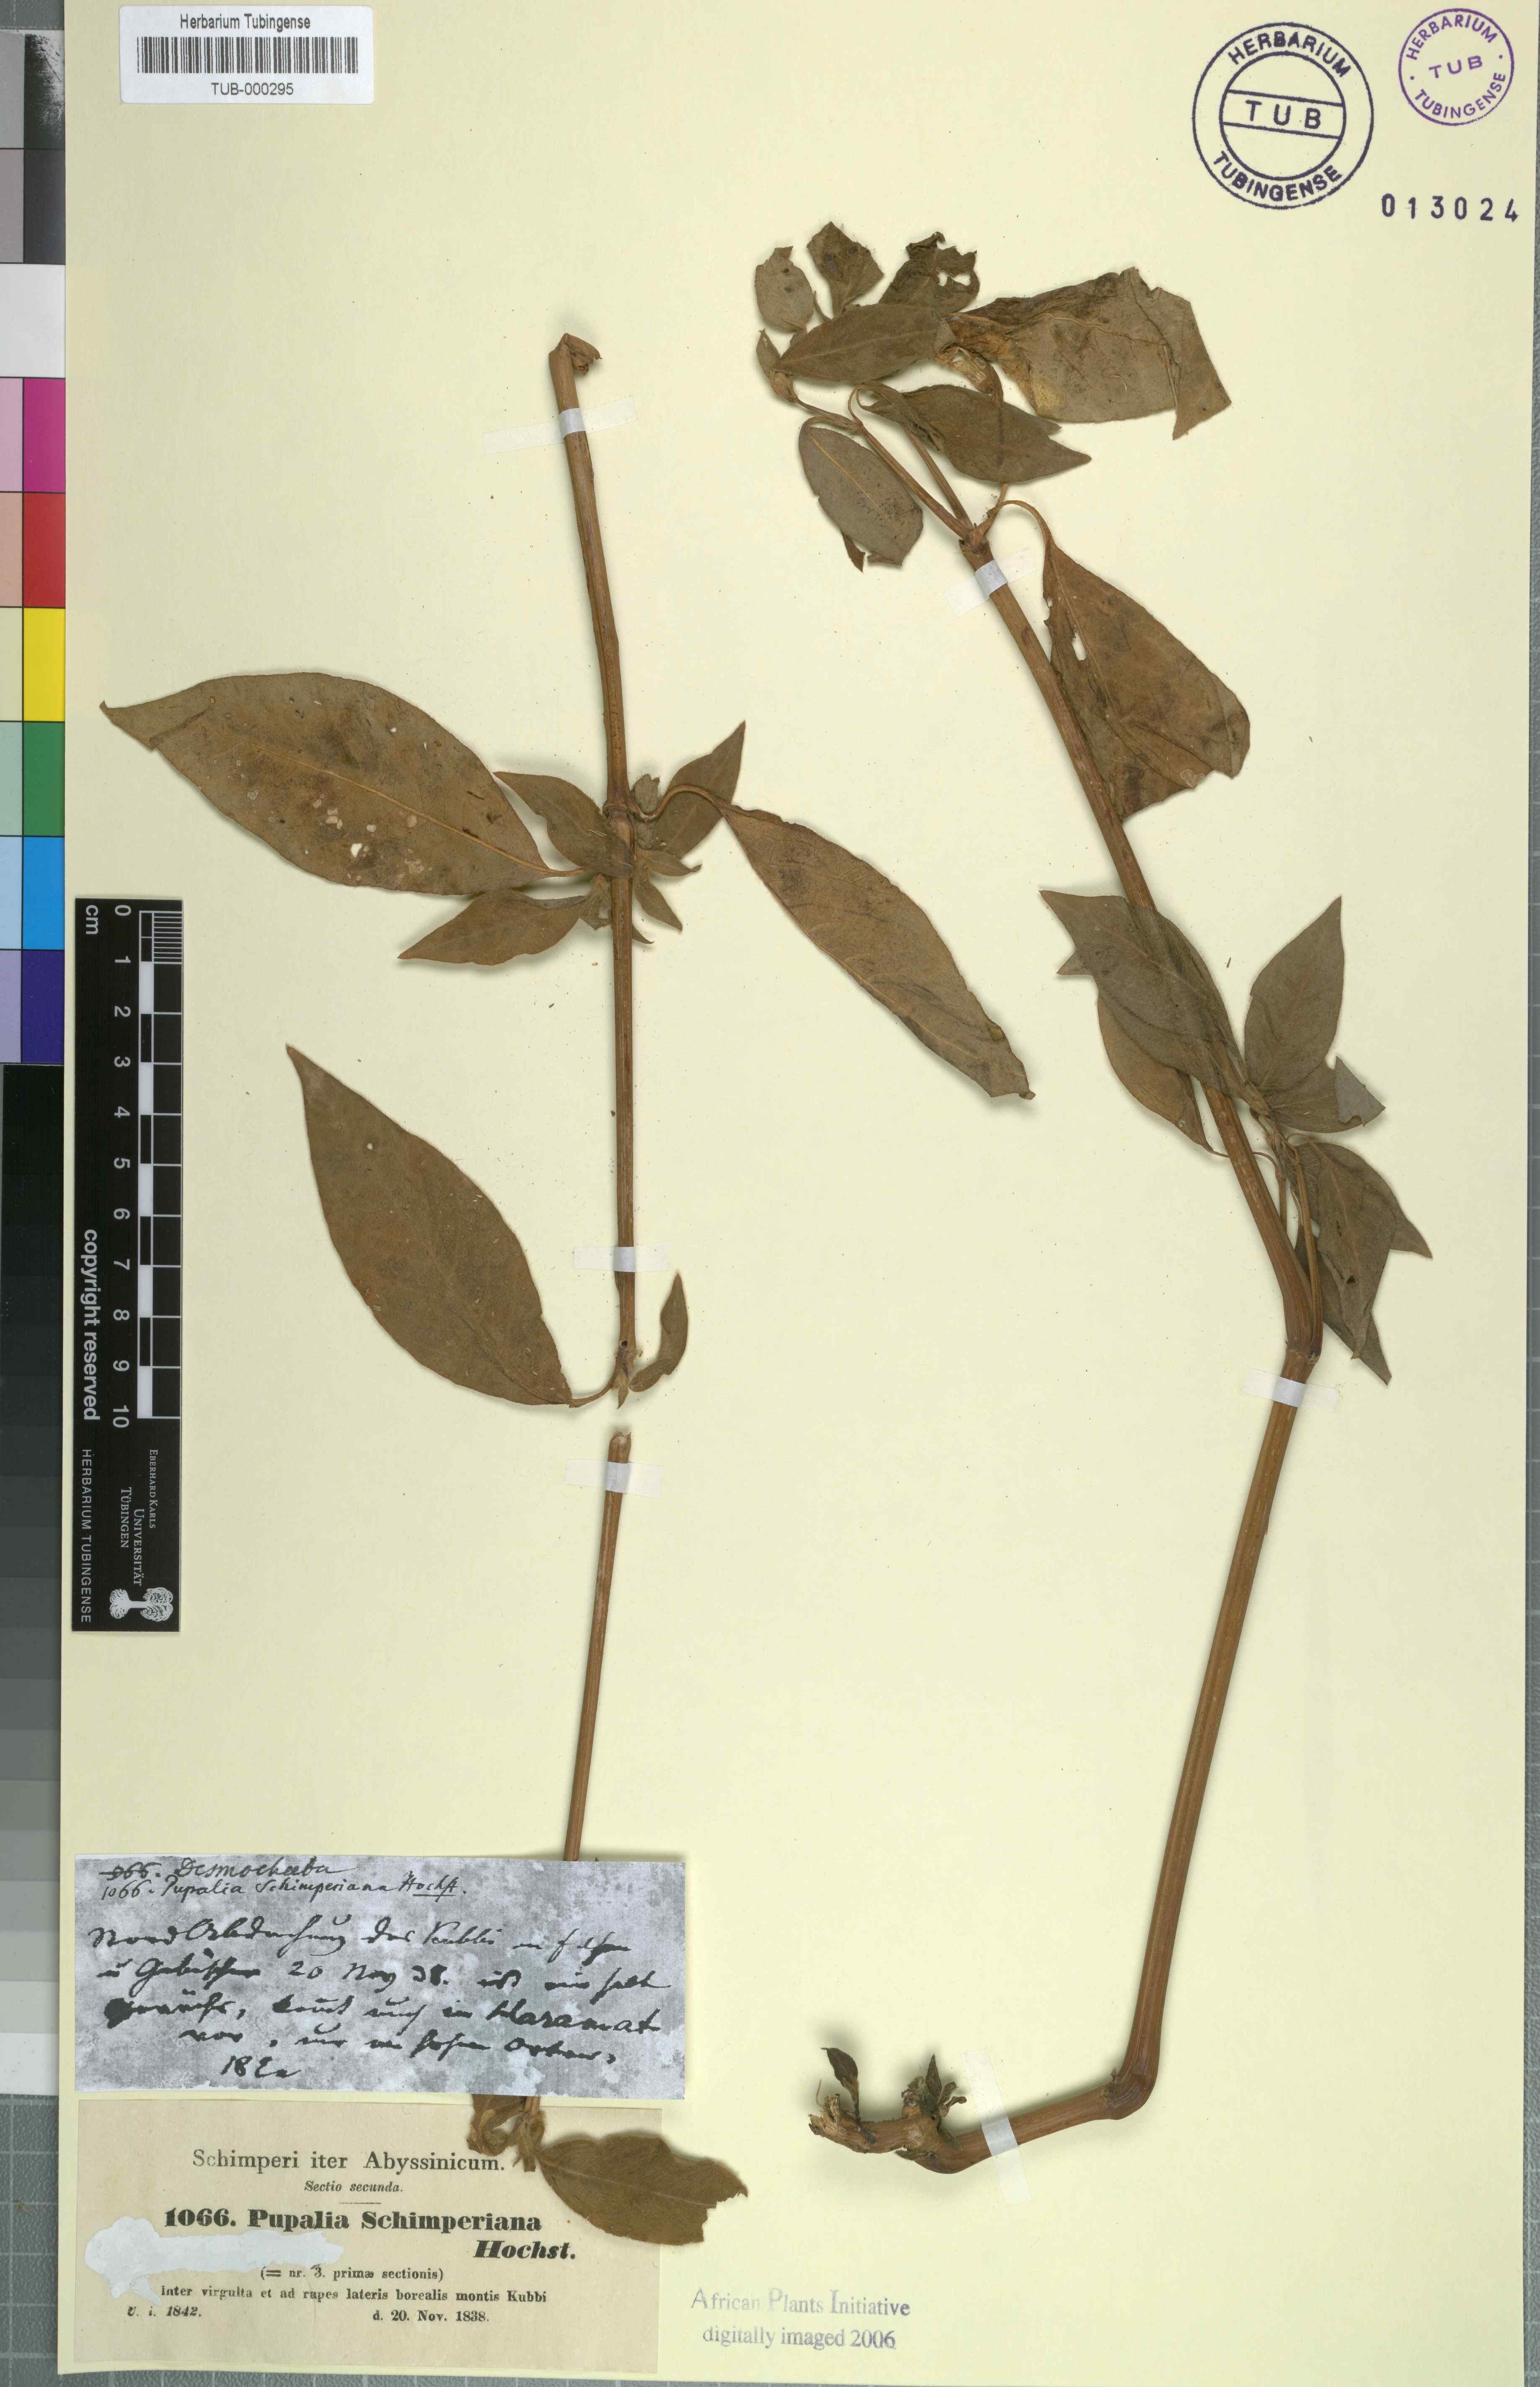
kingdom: Plantae
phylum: Tracheophyta
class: Magnoliopsida
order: Caryophyllales
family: Amaranthaceae
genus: Cyathula
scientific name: Cyathula cylindrica
